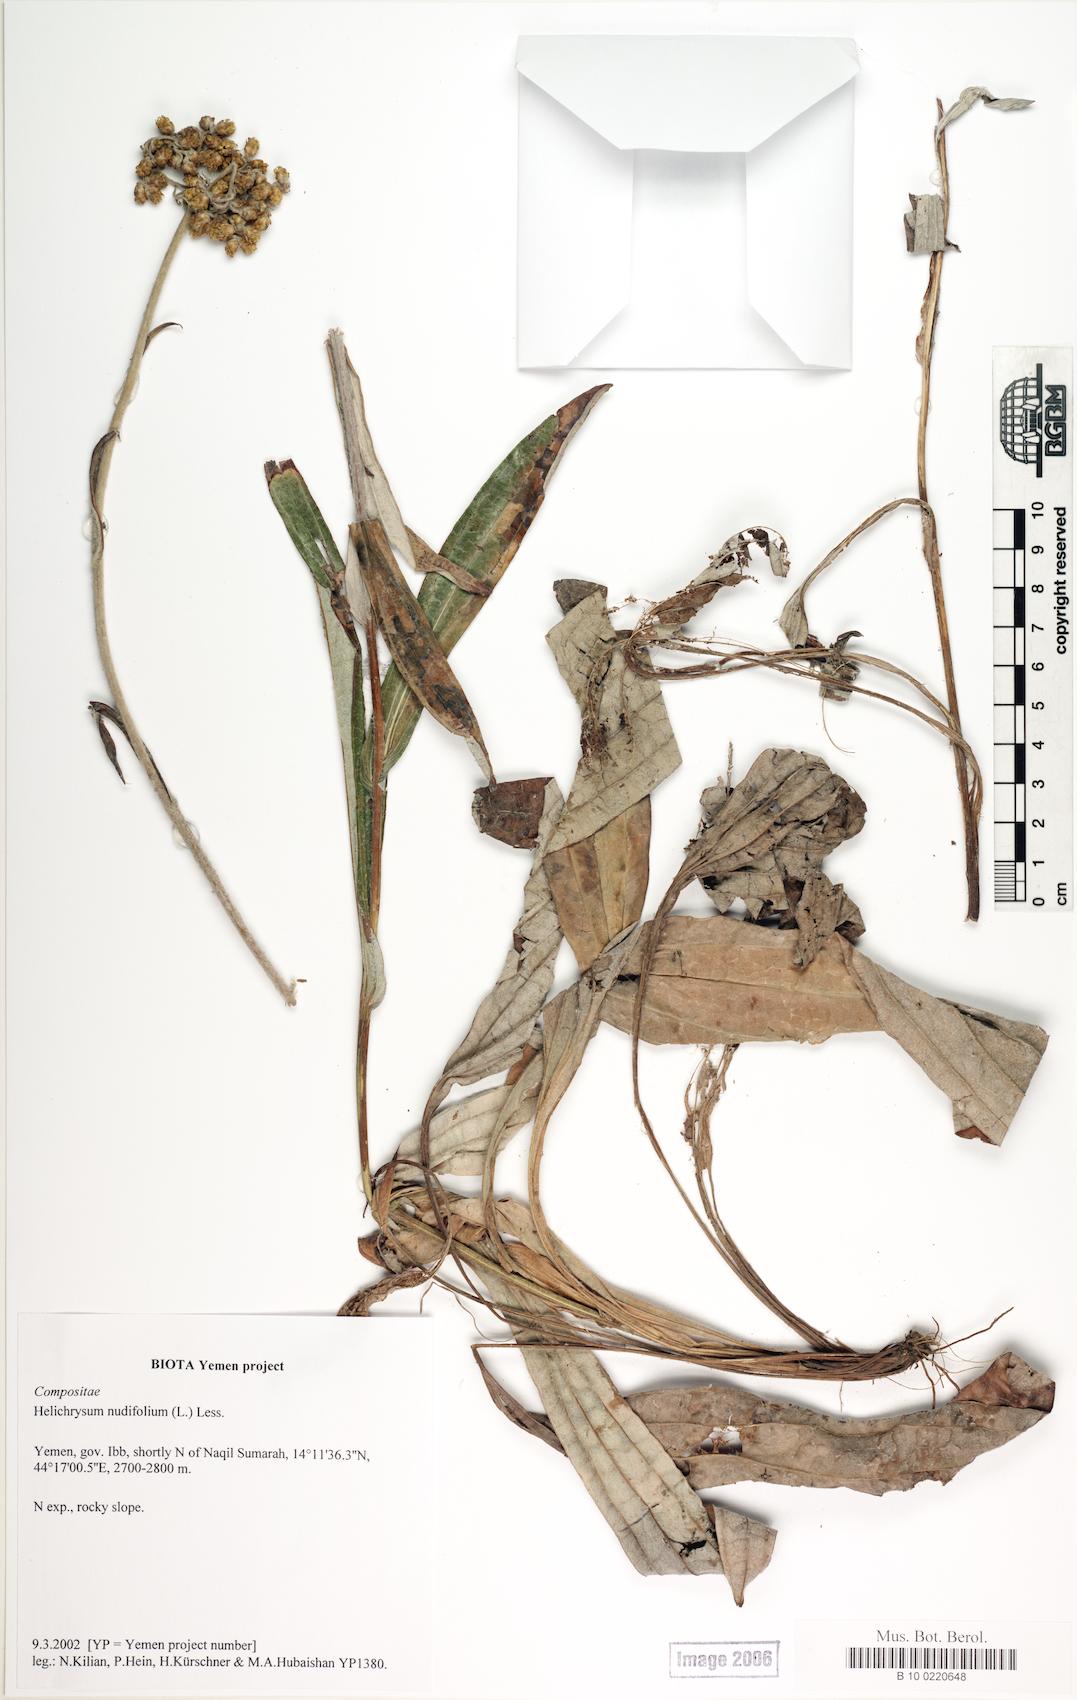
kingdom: Plantae
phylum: Tracheophyta
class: Magnoliopsida
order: Caryophyllales
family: Caryophyllaceae
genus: Arenaria
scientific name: Arenaria serpyllifolia
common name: Thyme-leaved sandwort
